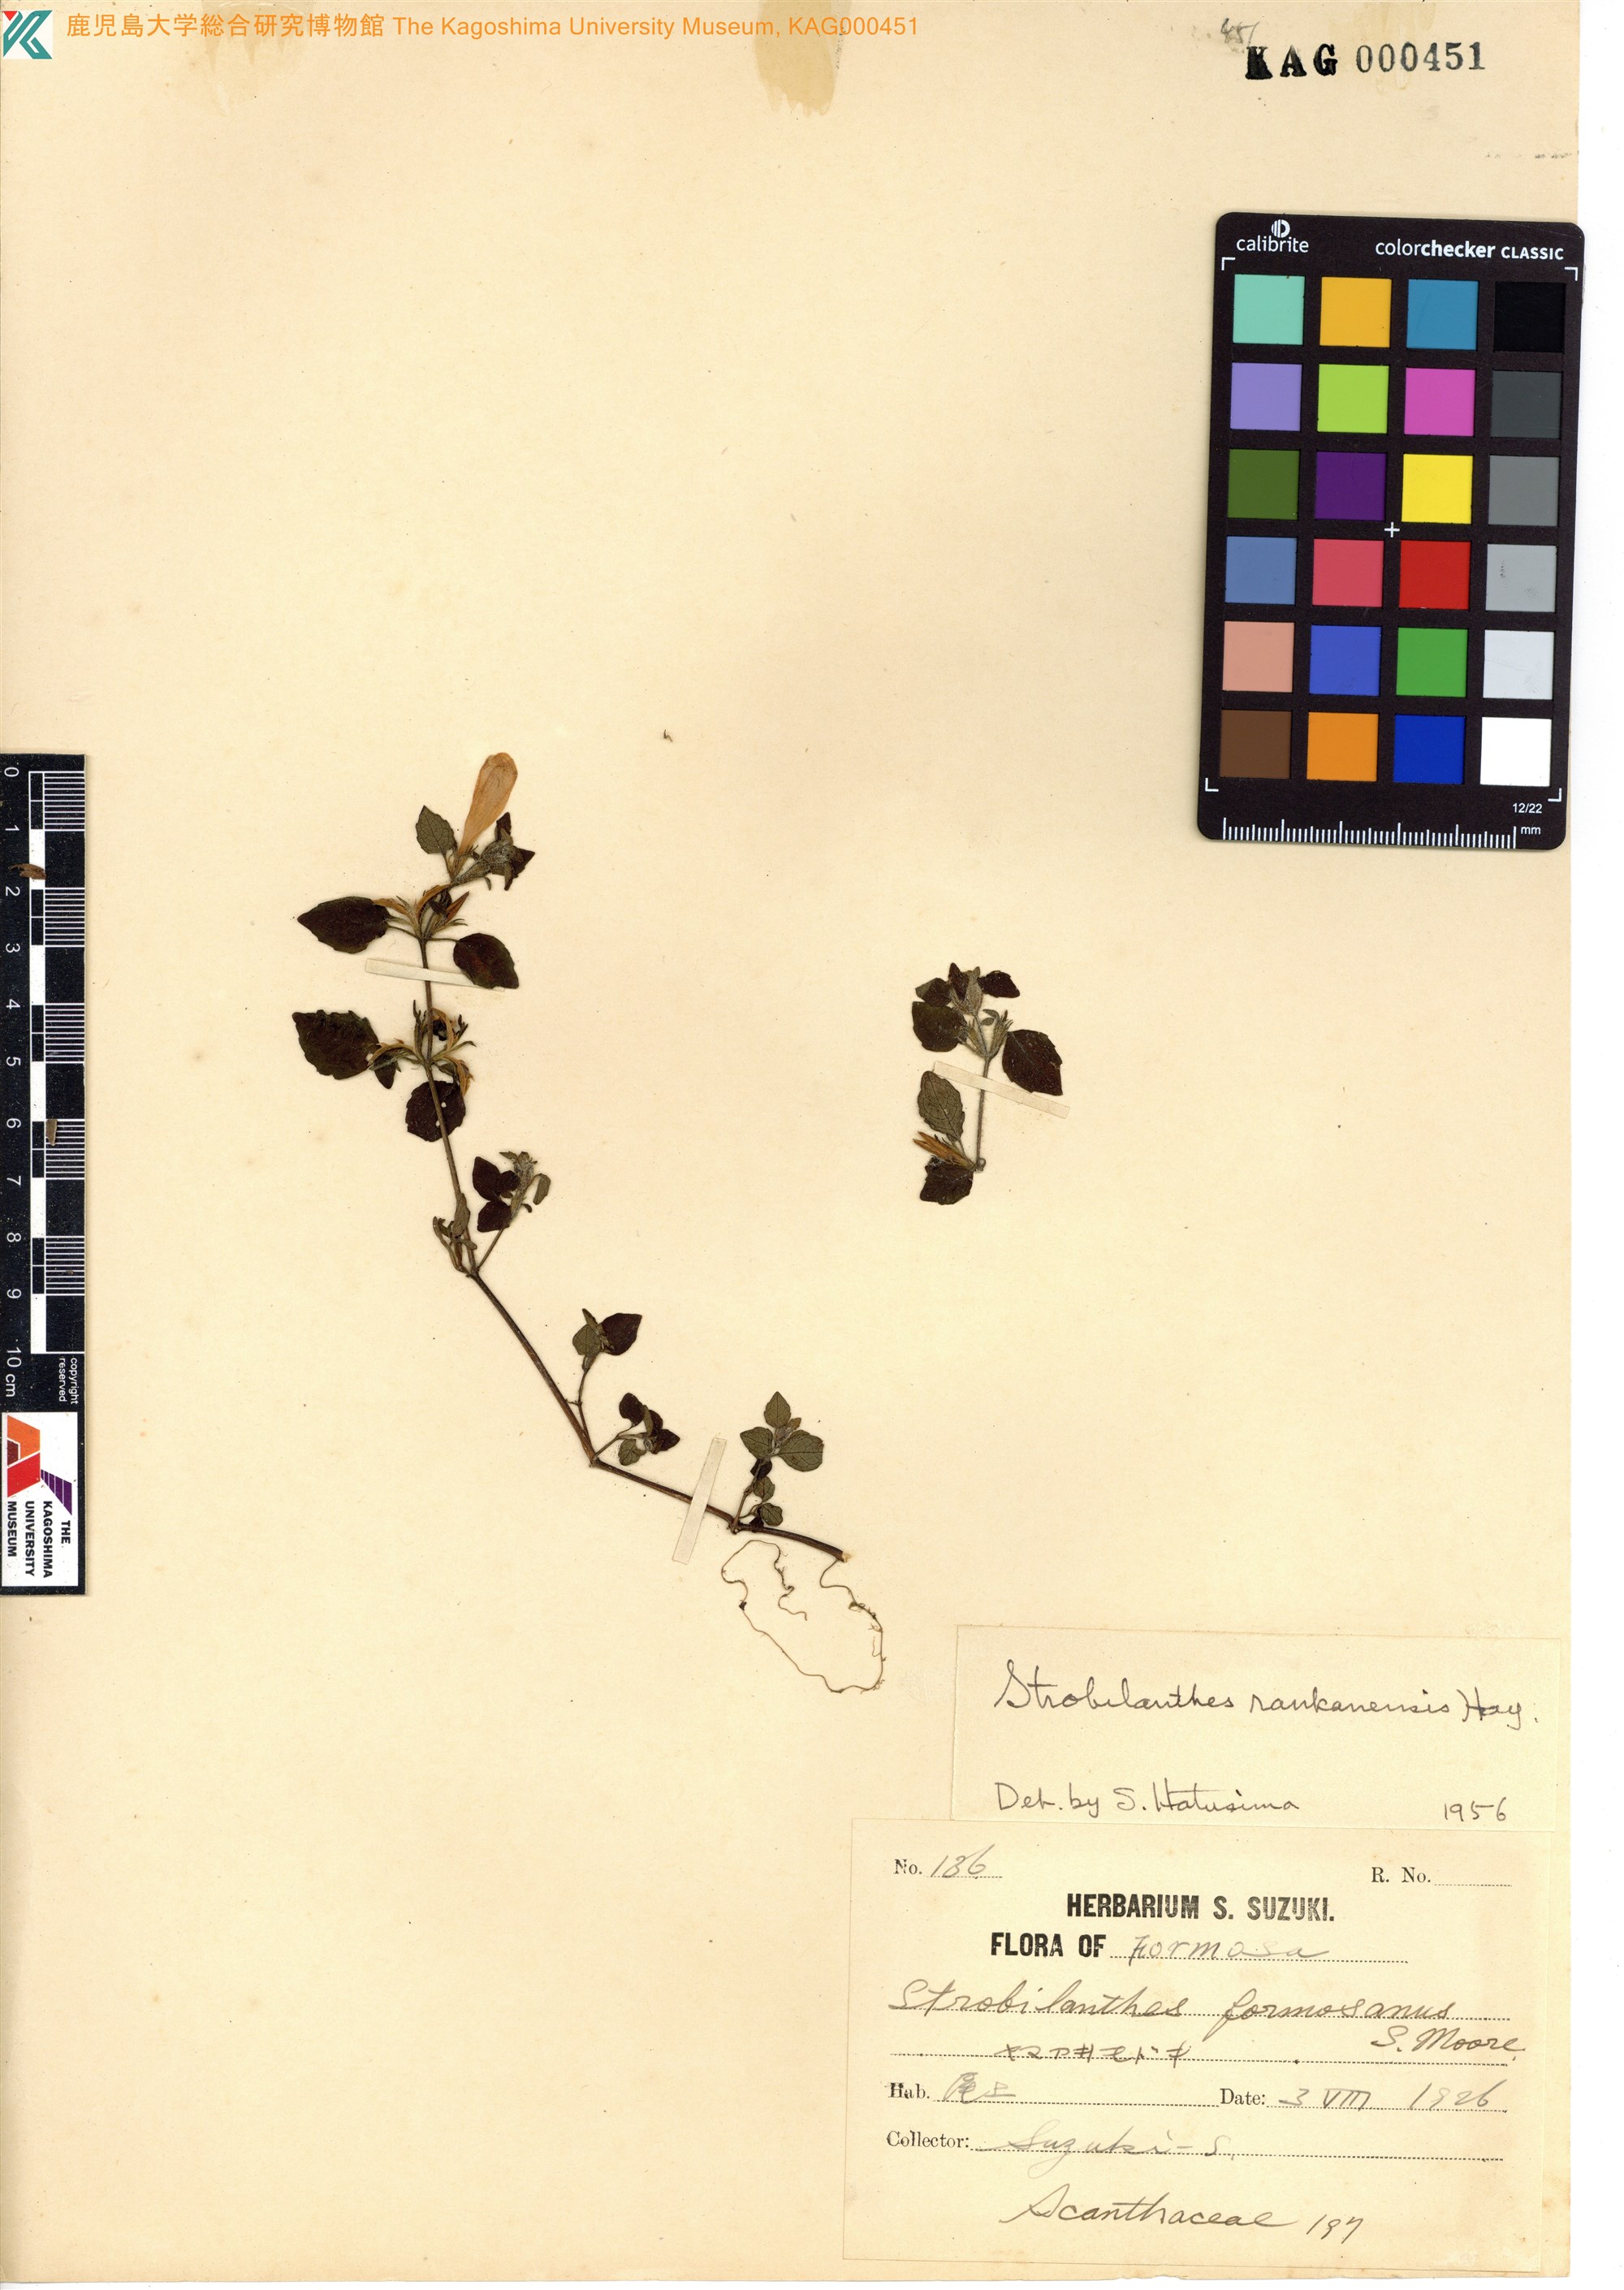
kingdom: Plantae
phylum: Tracheophyta
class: Magnoliopsida
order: Lamiales
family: Acanthaceae
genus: Strobilanthes
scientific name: Strobilanthes rankanensis
